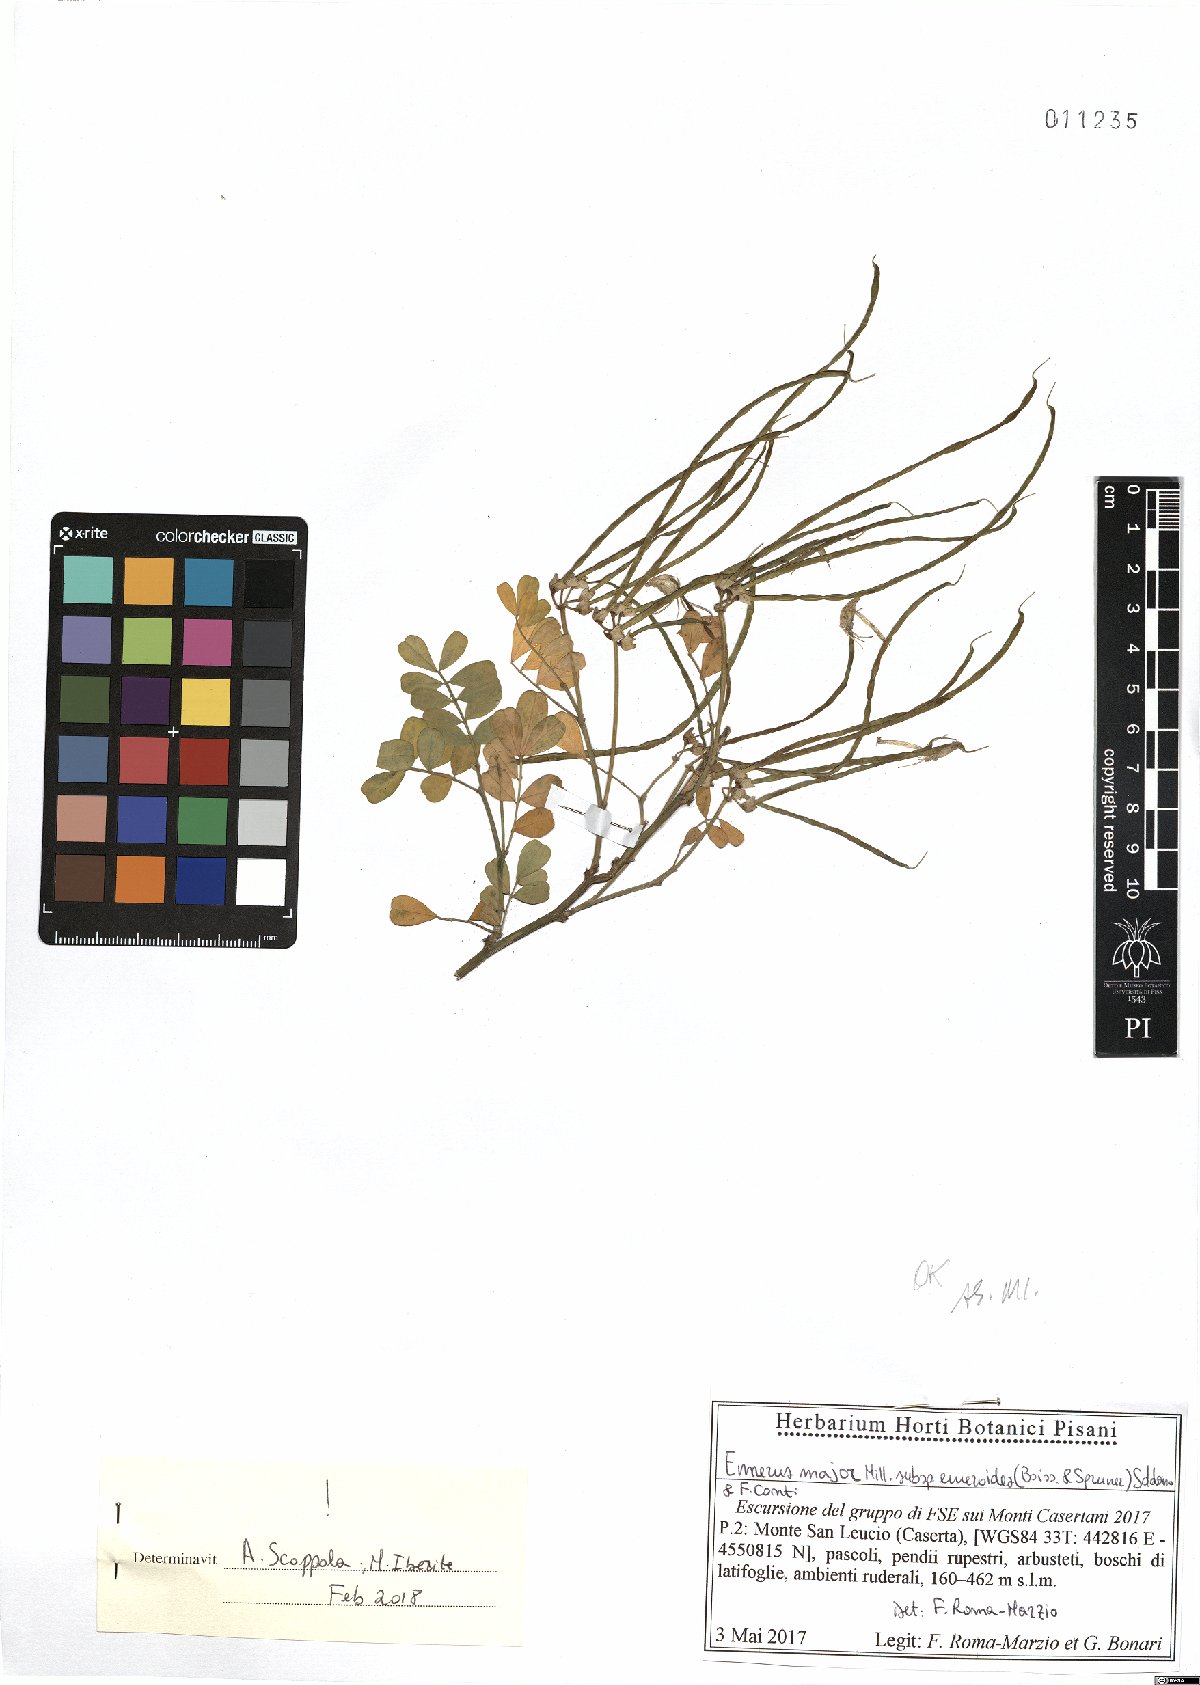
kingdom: Plantae
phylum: Tracheophyta
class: Magnoliopsida
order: Fabales
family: Fabaceae
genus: Hippocrepis
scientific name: Hippocrepis emerus
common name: Scorpion senna
